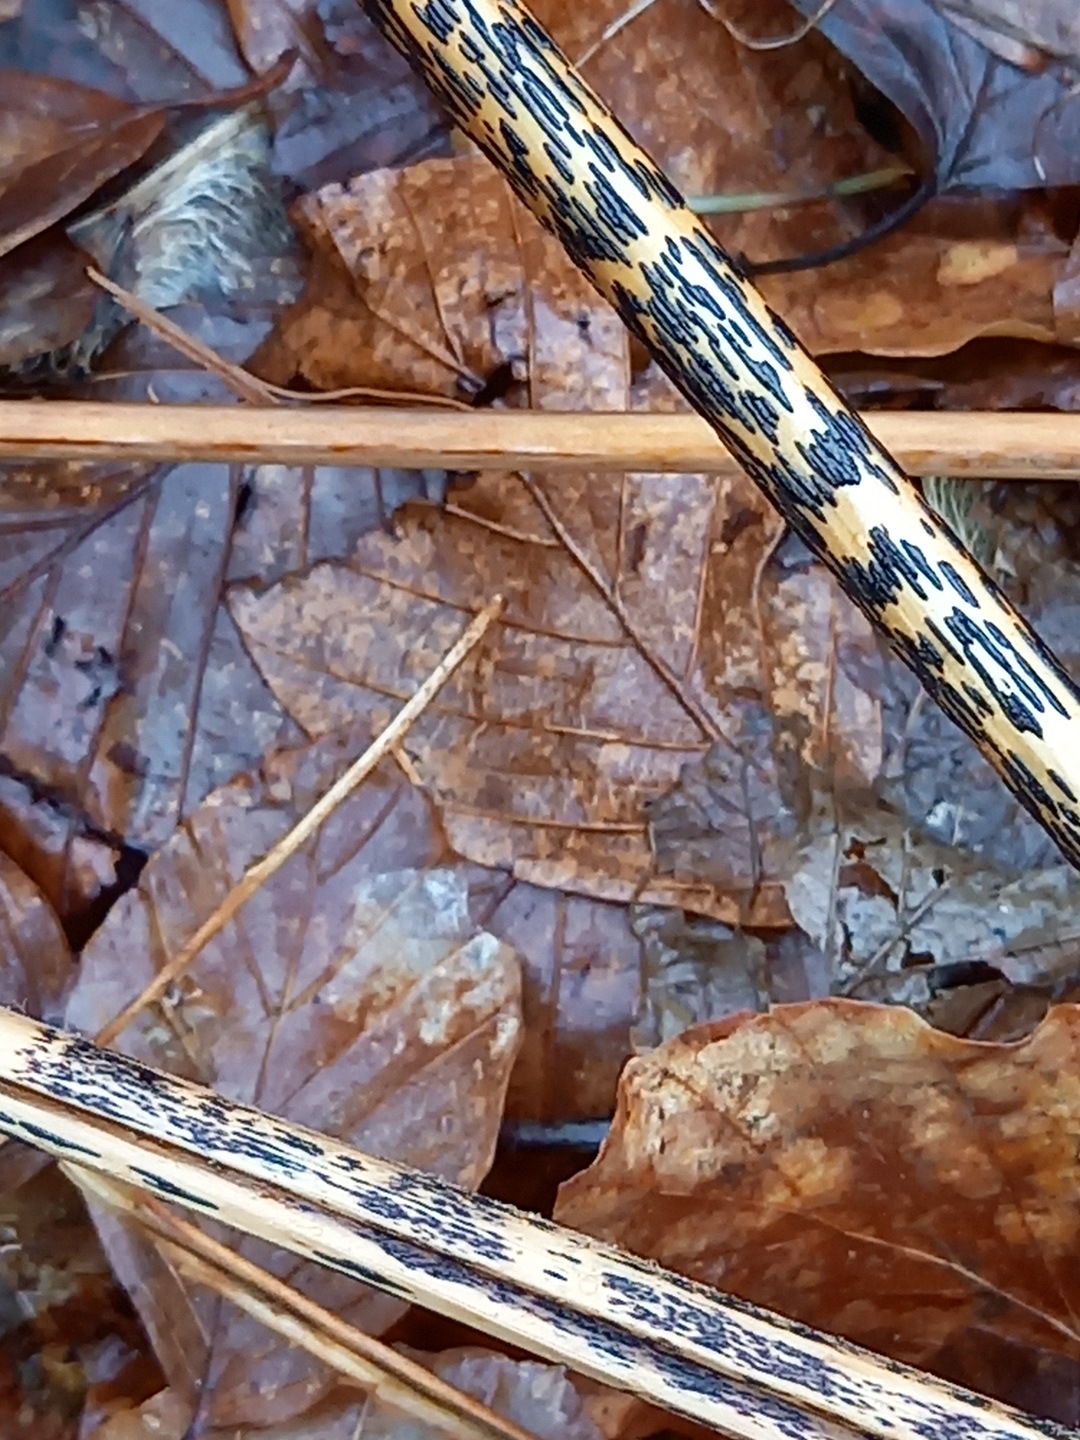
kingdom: Fungi
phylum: Ascomycota
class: Dothideomycetes
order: Pleosporales
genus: Rhopographus
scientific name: Rhopographus filicinus
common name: Bracken map
